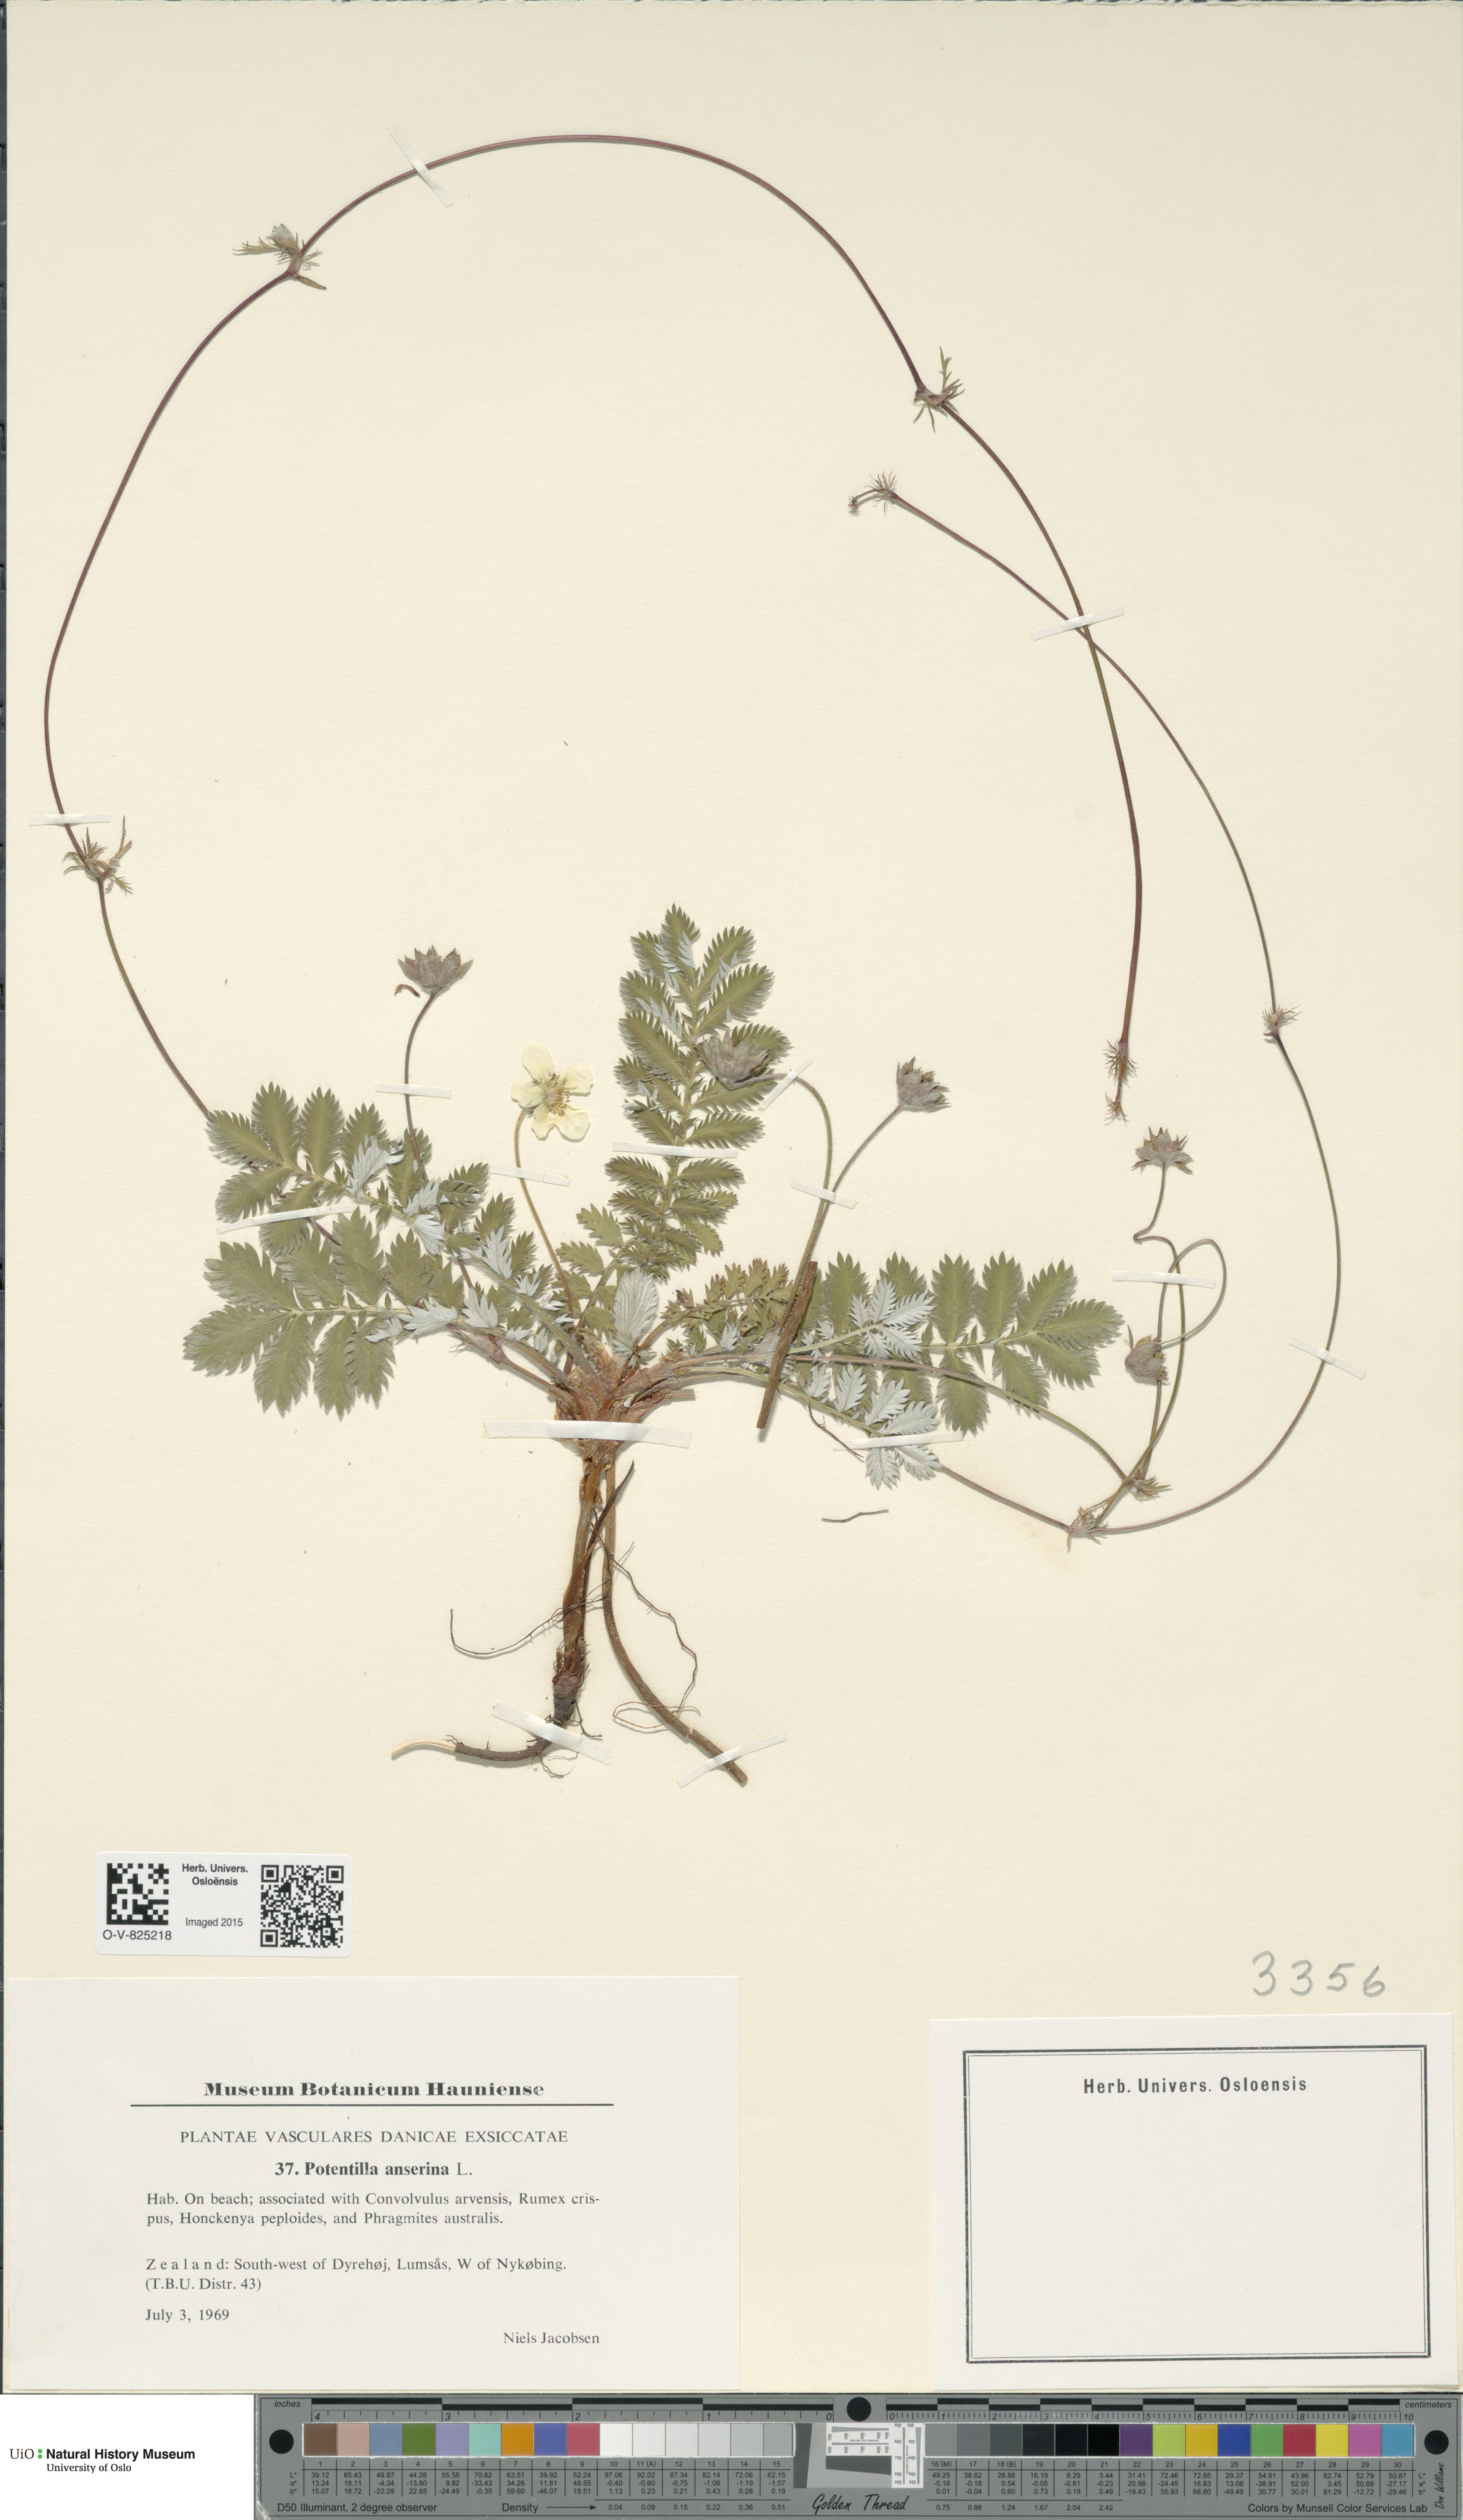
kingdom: Plantae
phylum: Tracheophyta
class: Magnoliopsida
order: Rosales
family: Rosaceae
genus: Argentina
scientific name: Argentina anserina
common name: Common silverweed
